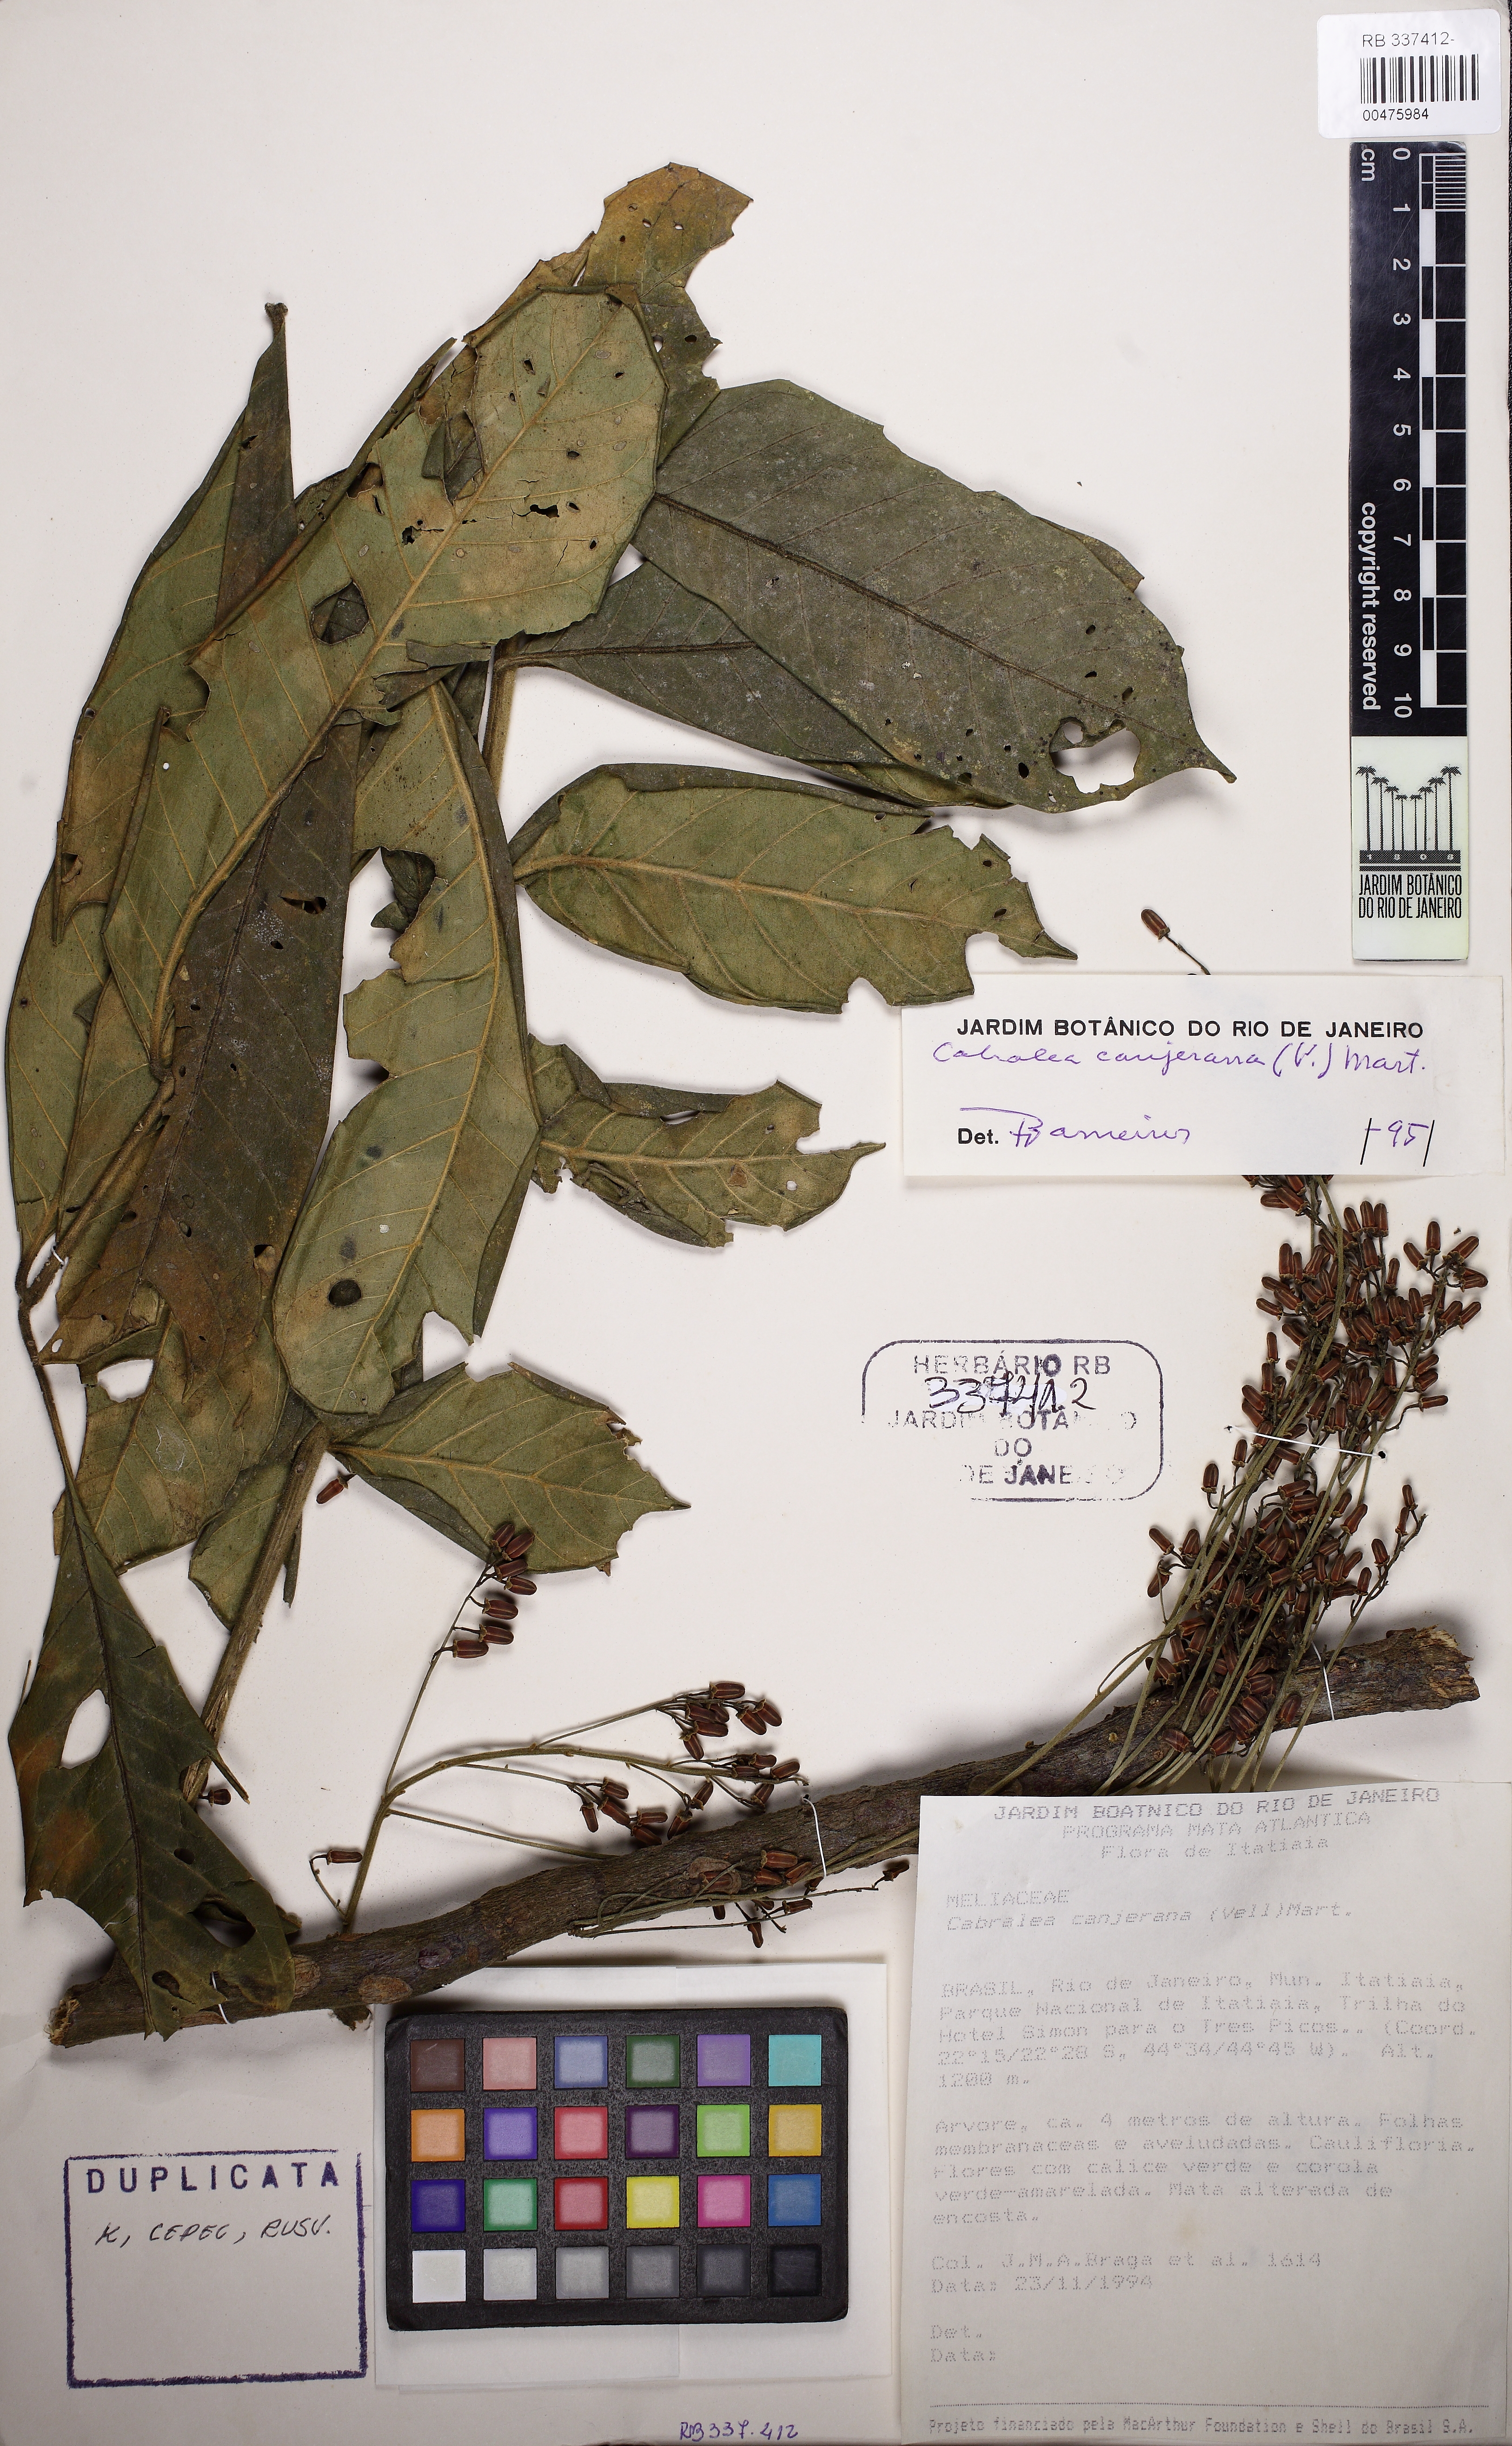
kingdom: Plantae
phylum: Tracheophyta
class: Magnoliopsida
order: Sapindales
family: Meliaceae
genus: Cabralea
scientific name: Cabralea canjerana
